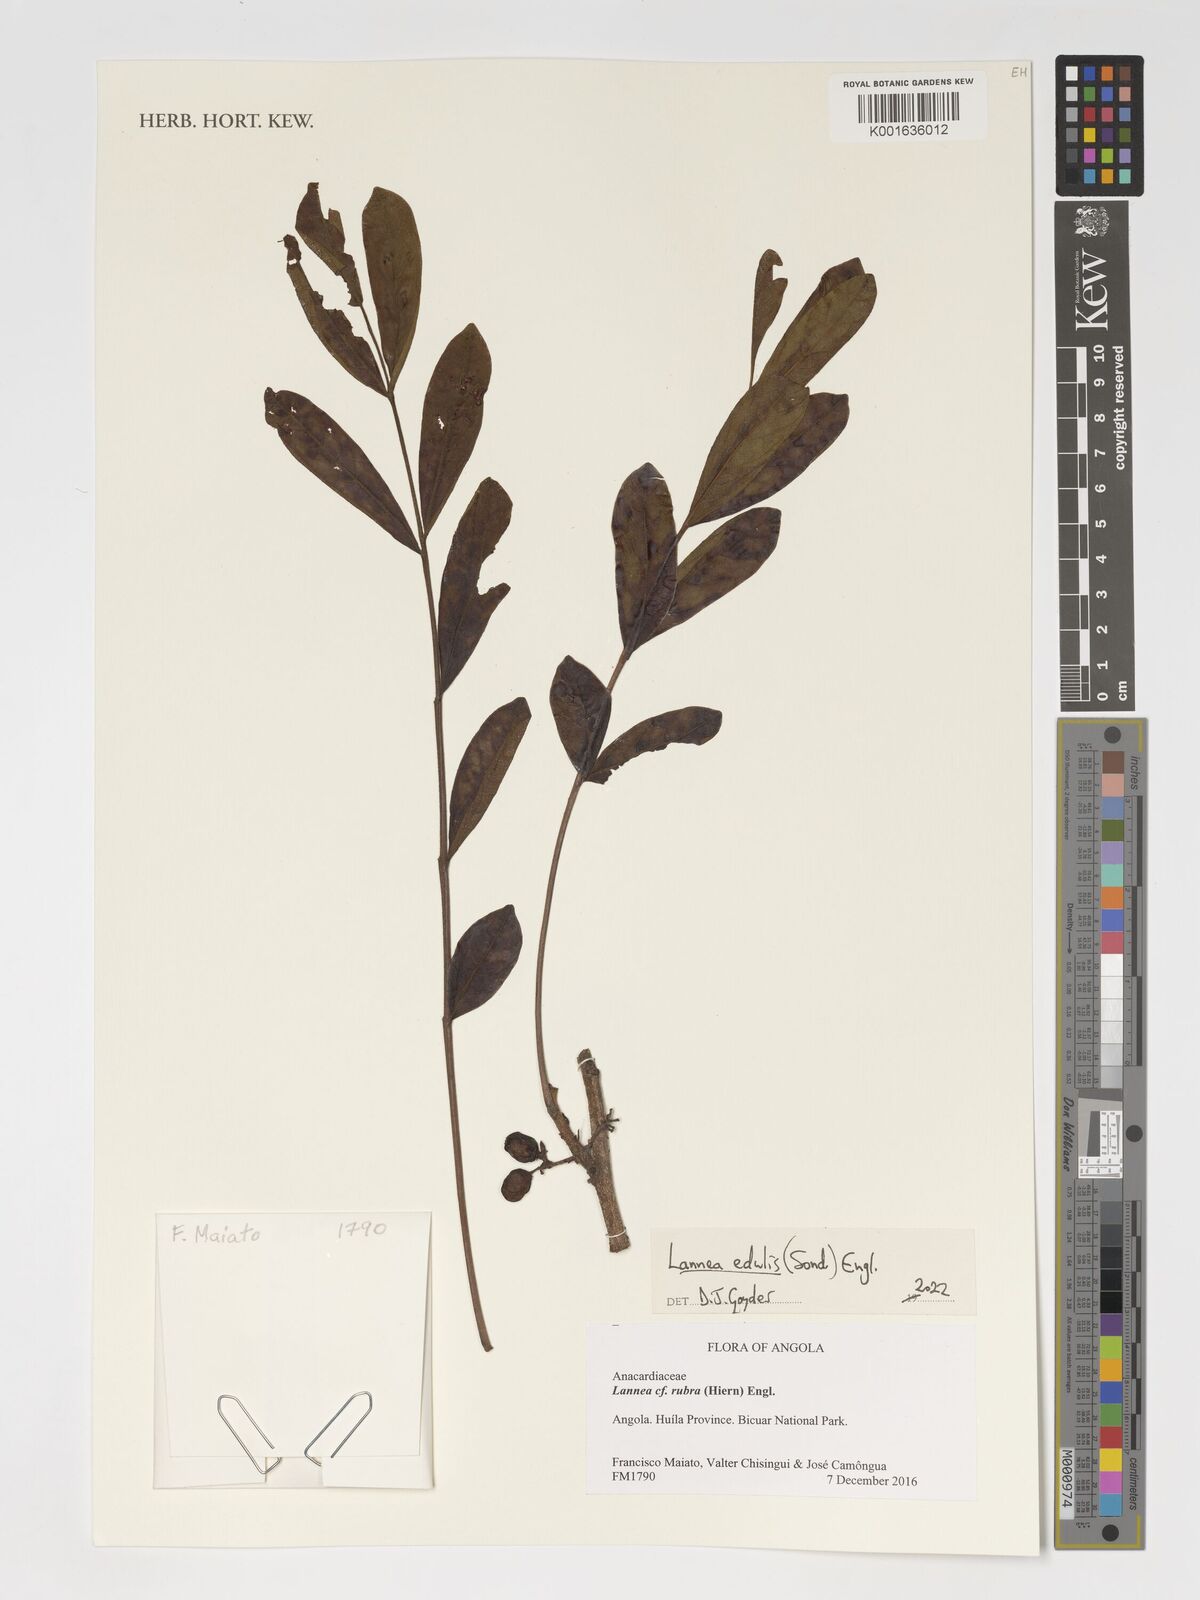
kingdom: Plantae
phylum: Tracheophyta
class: Magnoliopsida
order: Sapindales
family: Anacardiaceae
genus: Lannea
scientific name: Lannea edulis
